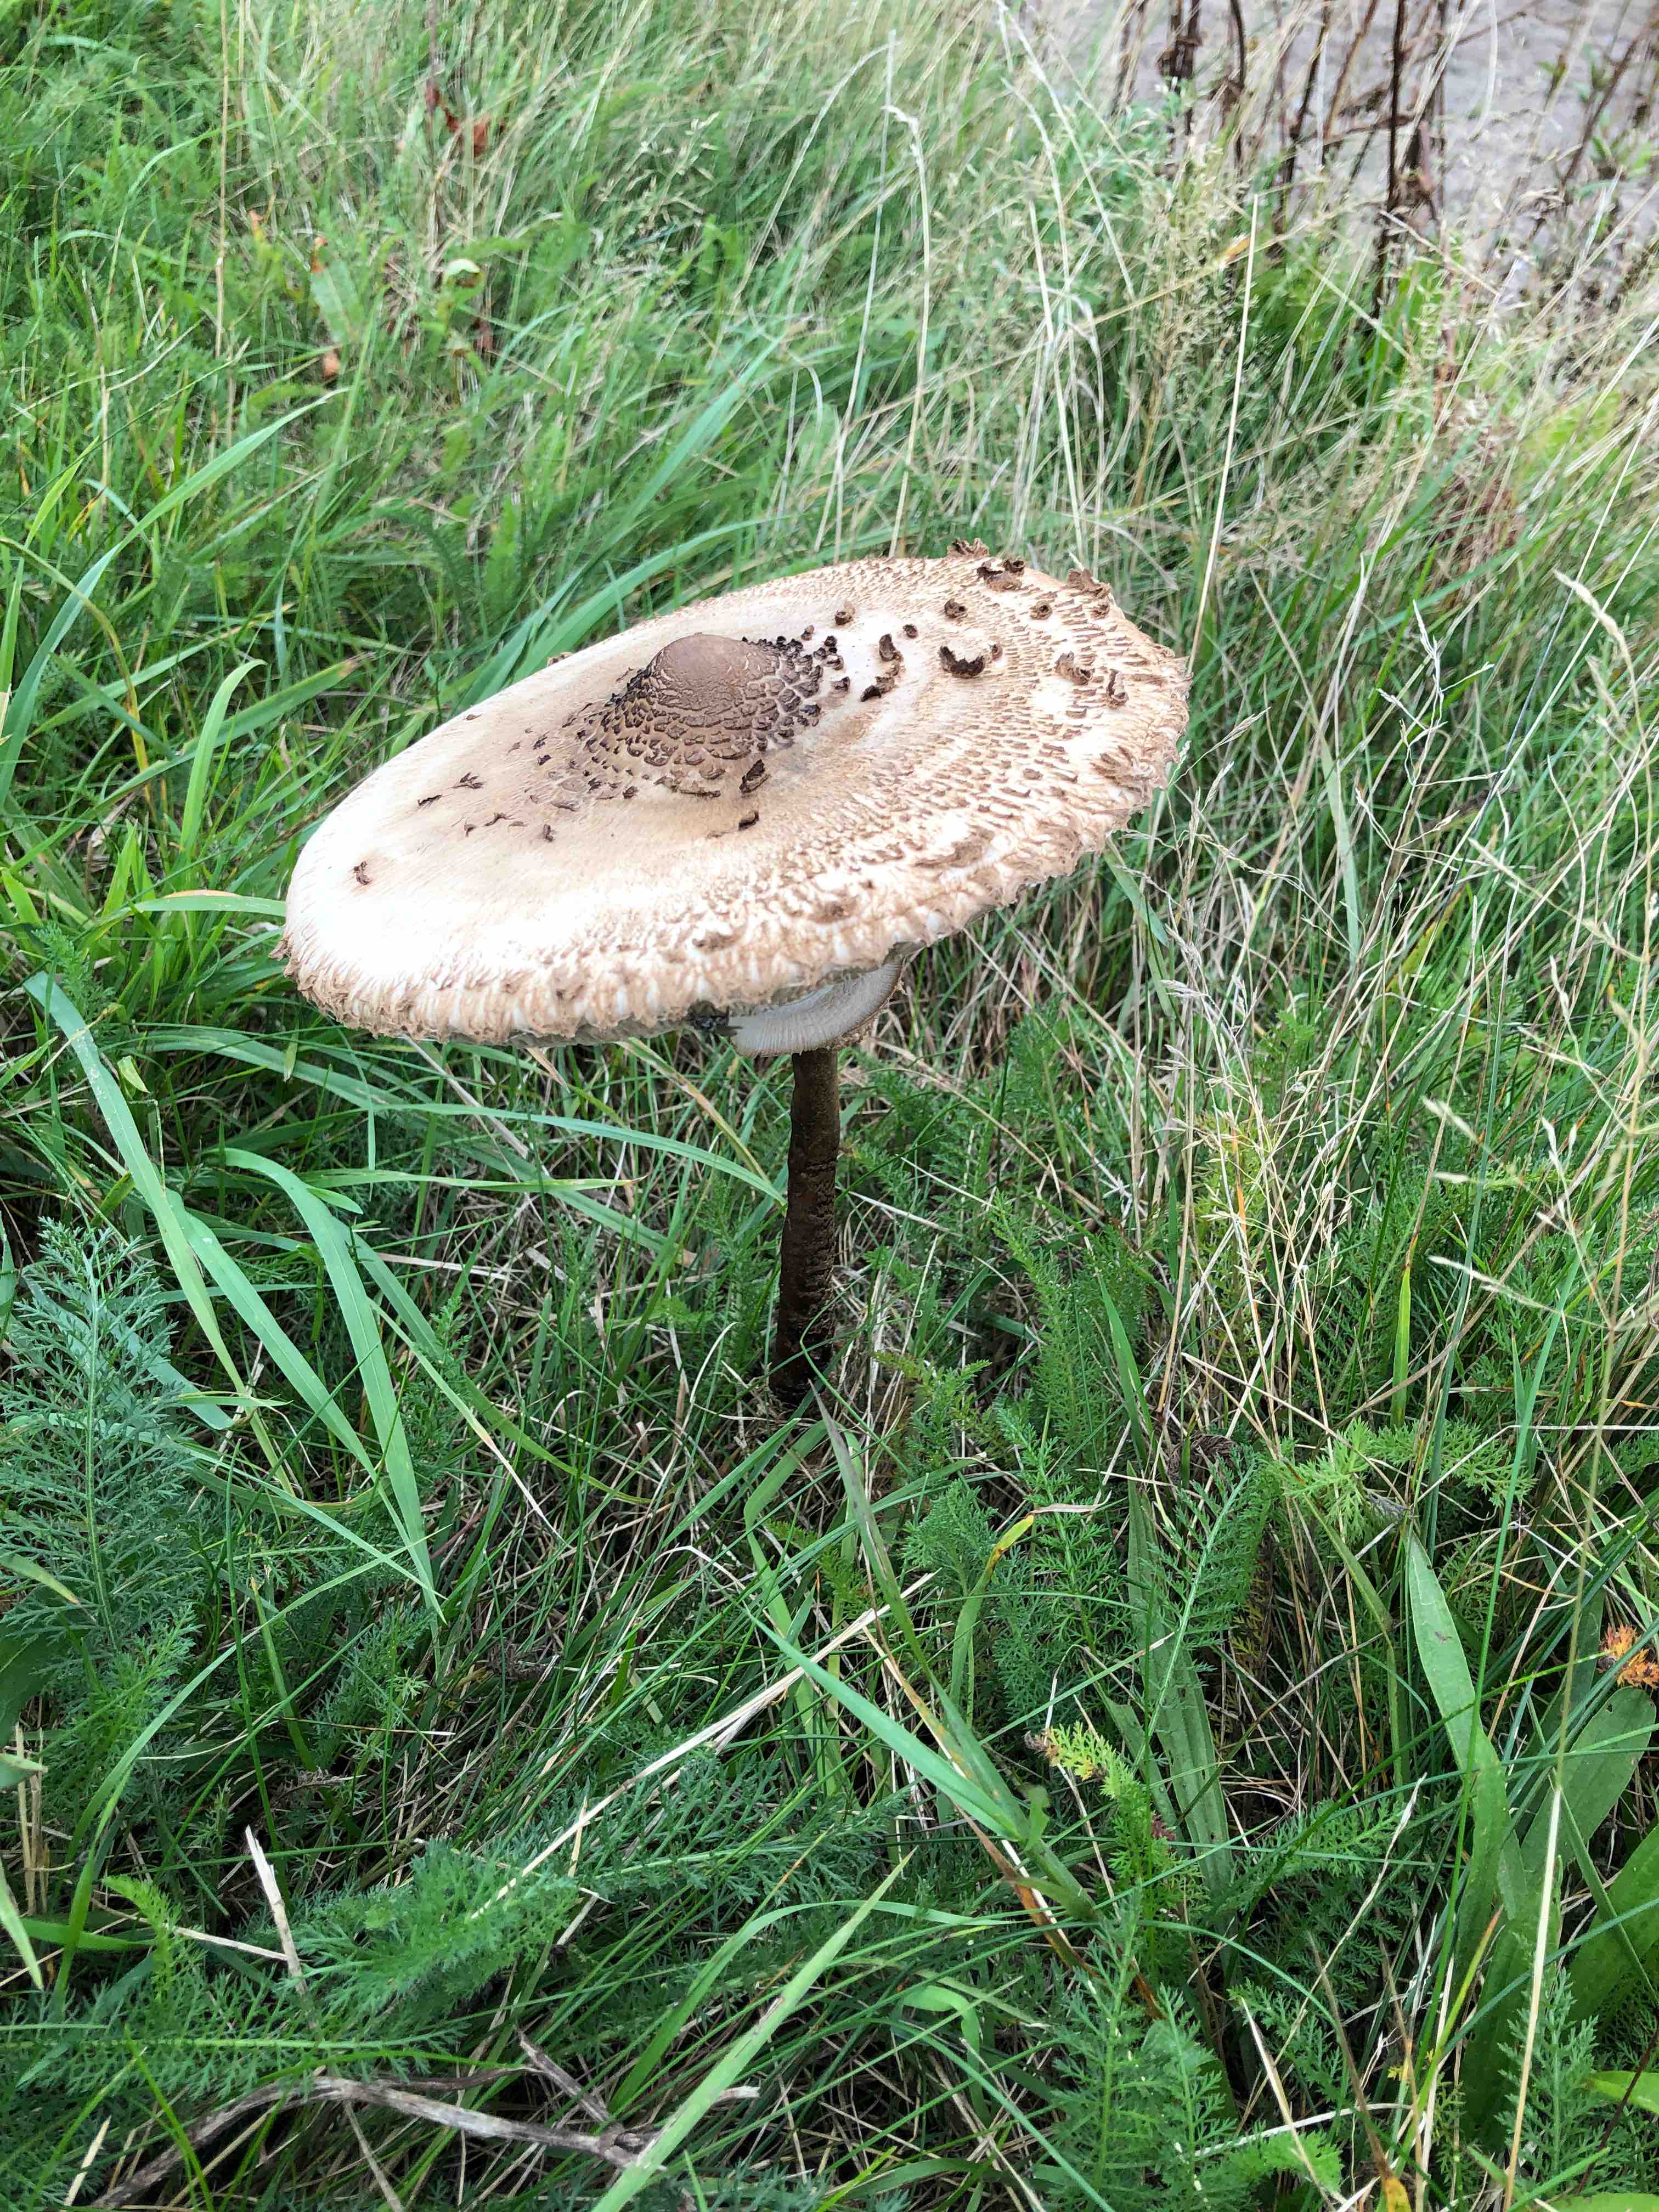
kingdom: Fungi
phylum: Basidiomycota
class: Agaricomycetes
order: Agaricales
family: Agaricaceae
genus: Macrolepiota
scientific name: Macrolepiota procera
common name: stor kæmpeparasolhat
